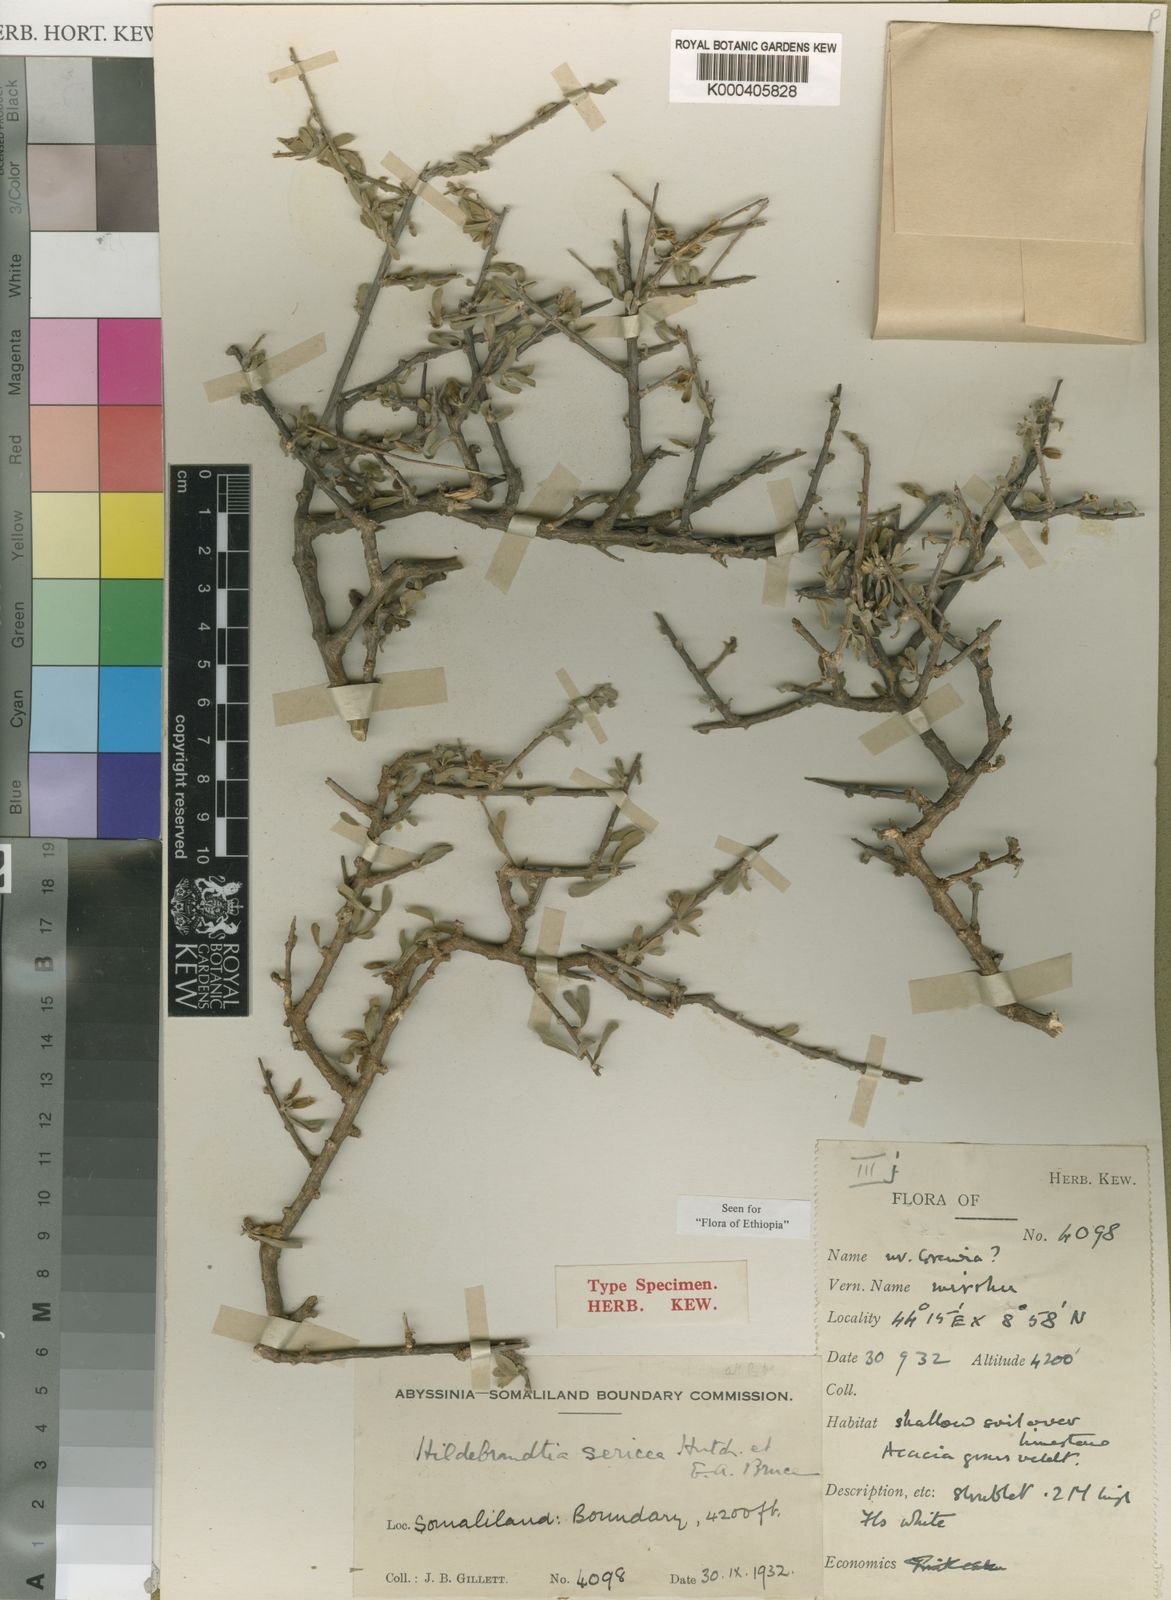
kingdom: Plantae
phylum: Tracheophyta
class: Magnoliopsida
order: Solanales
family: Convolvulaceae
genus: Hildebrandtia
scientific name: Hildebrandtia sericea
